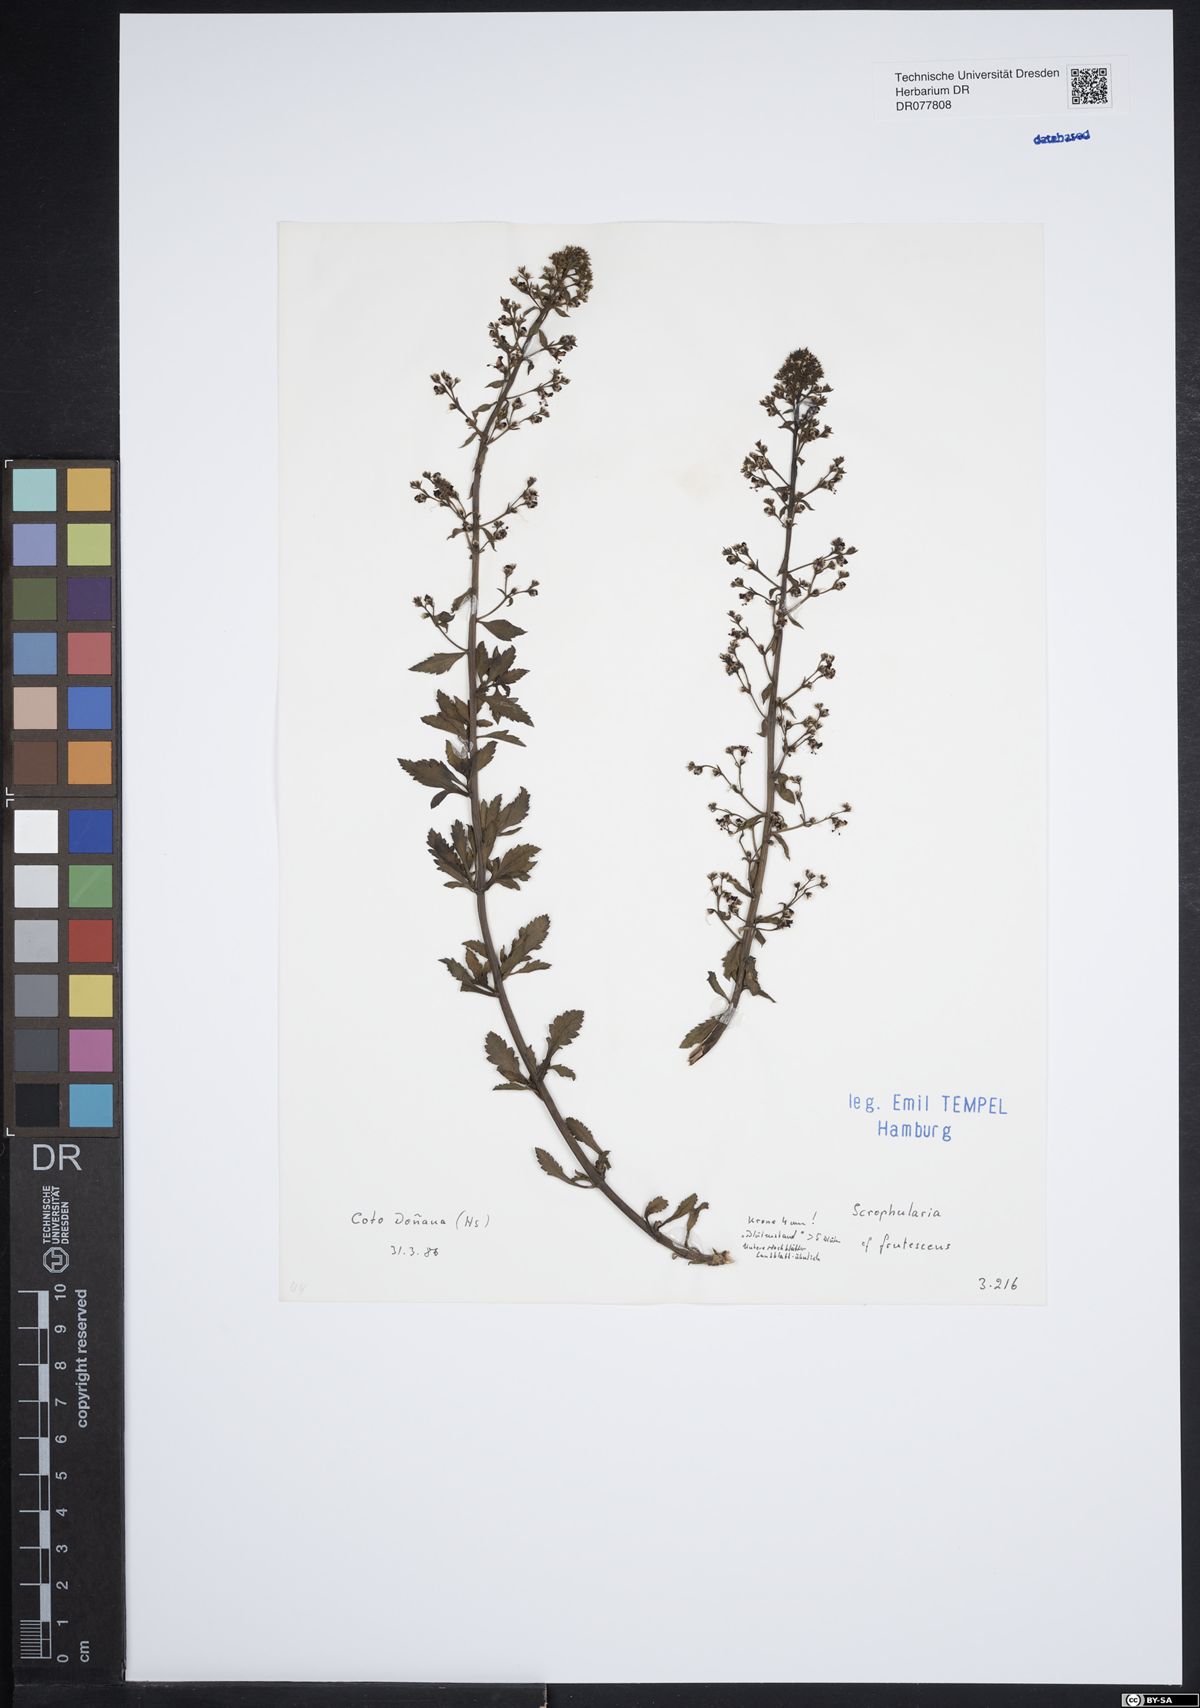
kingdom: Plantae
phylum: Tracheophyta
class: Magnoliopsida
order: Lamiales
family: Scrophulariaceae
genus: Scrophularia
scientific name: Scrophularia frutescens
